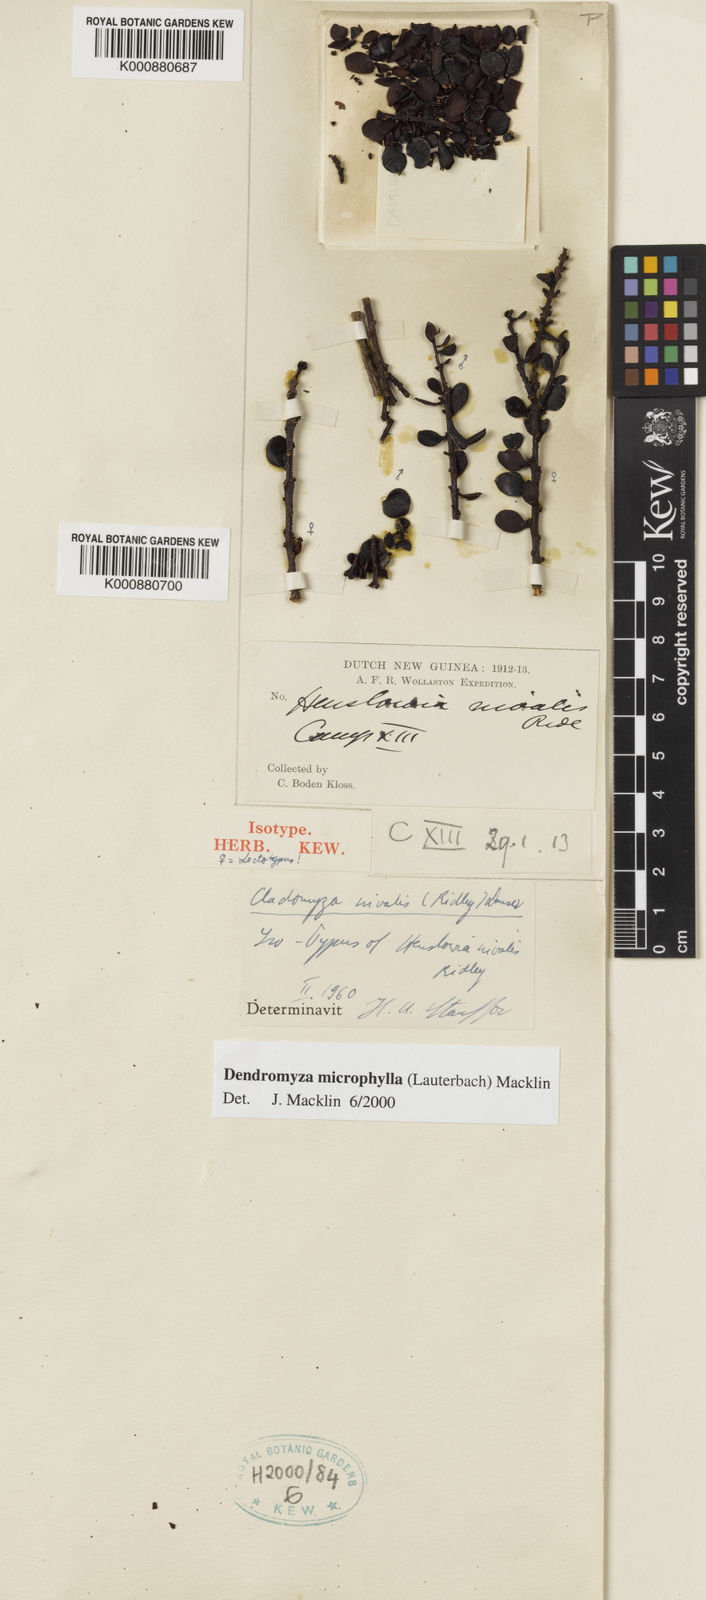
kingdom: Plantae
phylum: Tracheophyta
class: Magnoliopsida
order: Santalales
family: Amphorogynaceae
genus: Cladomyza
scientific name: Cladomyza microphylla
